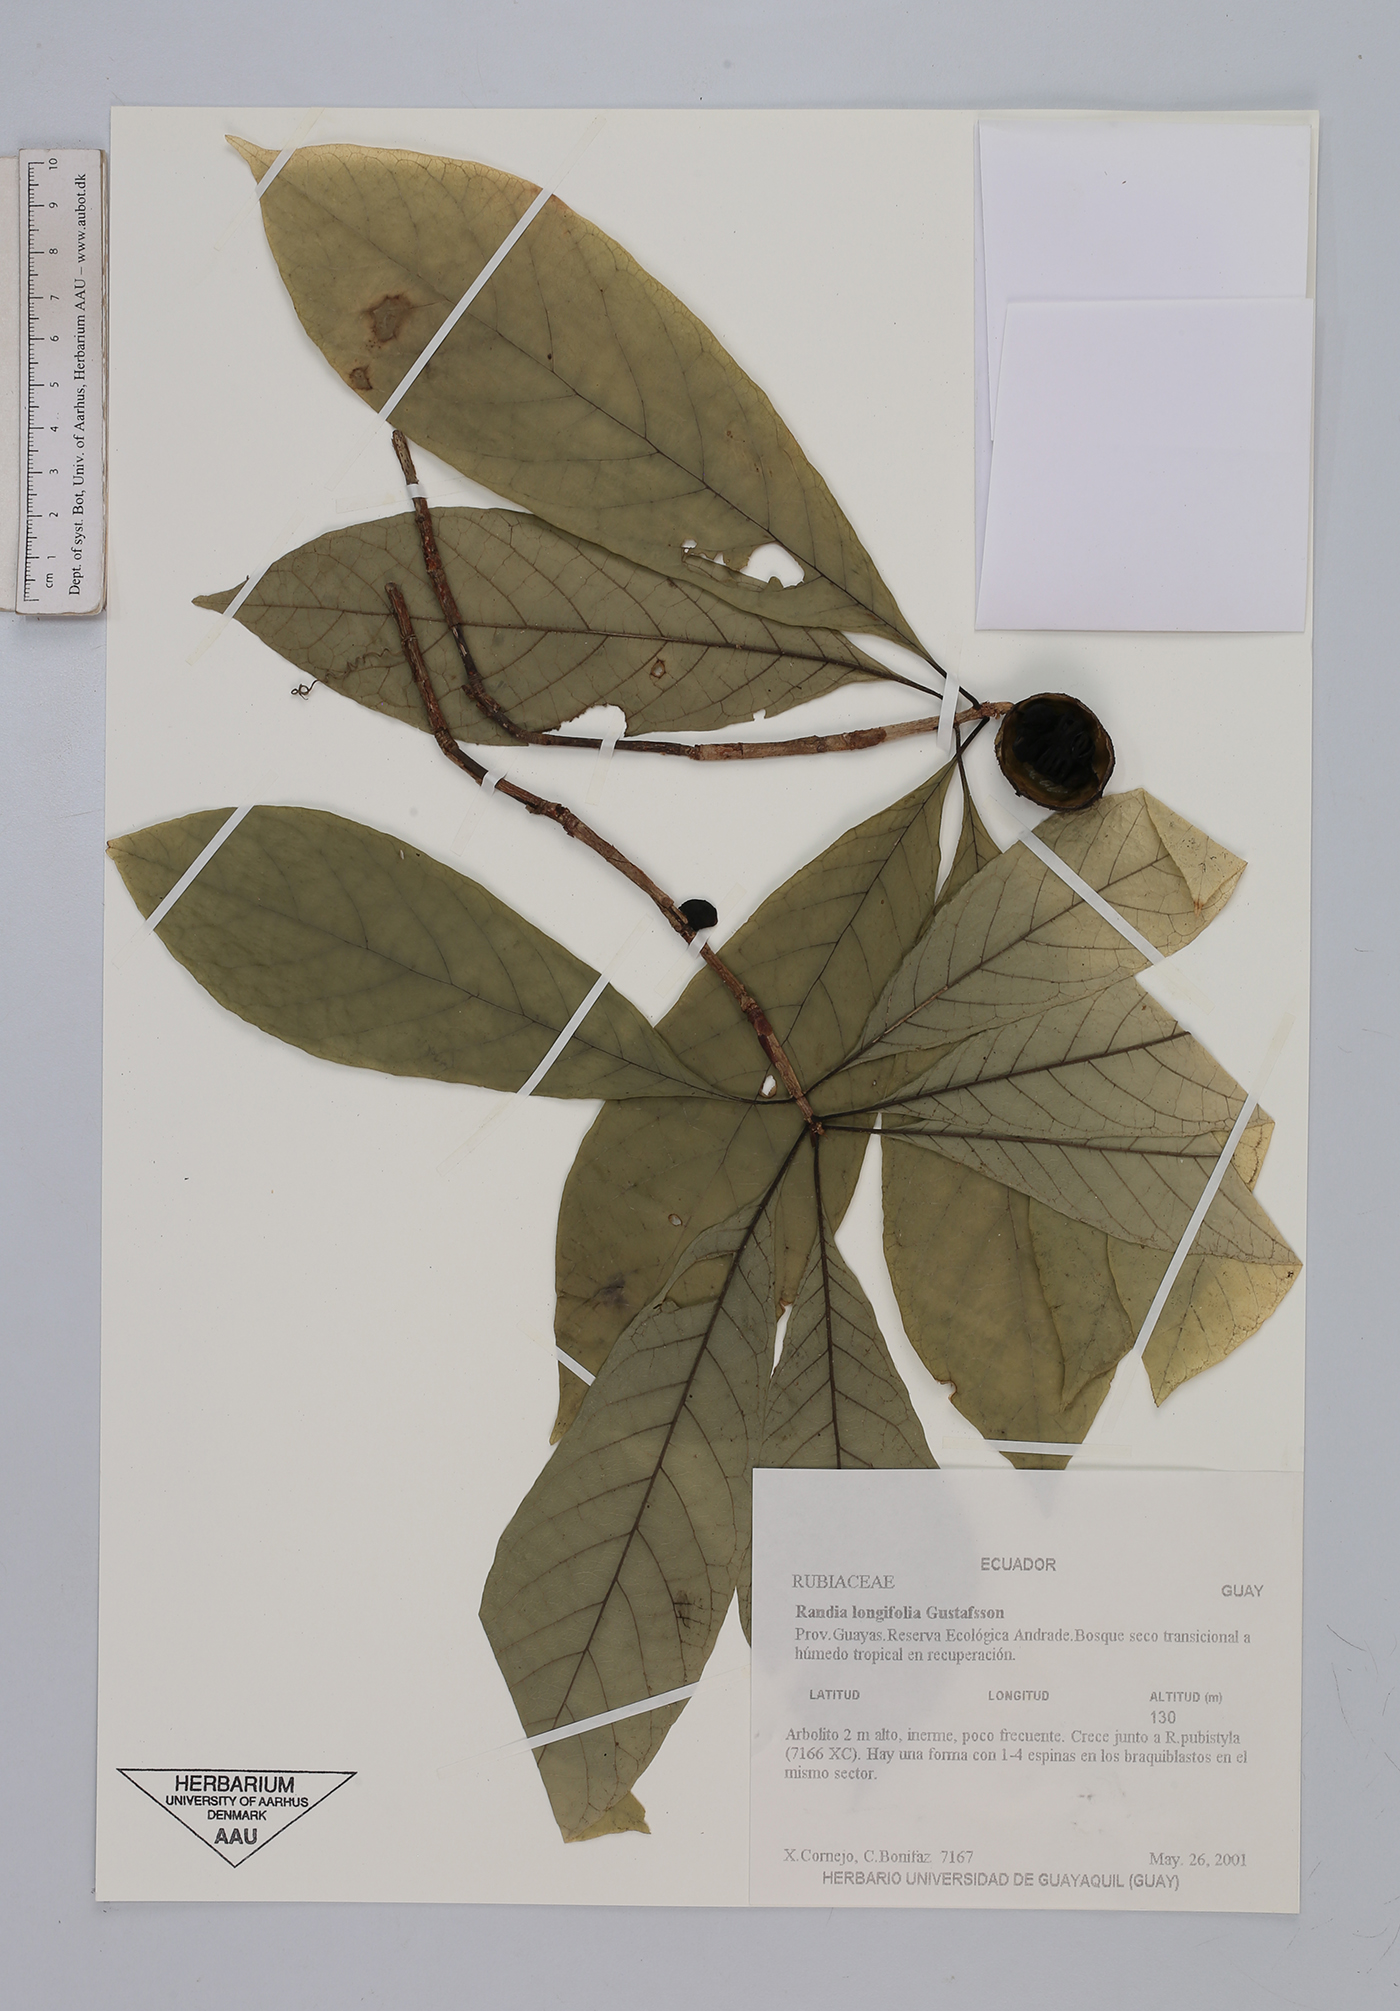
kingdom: Plantae
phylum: Tracheophyta
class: Magnoliopsida
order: Gentianales
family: Rubiaceae
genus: Randia
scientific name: Randia longifolia
